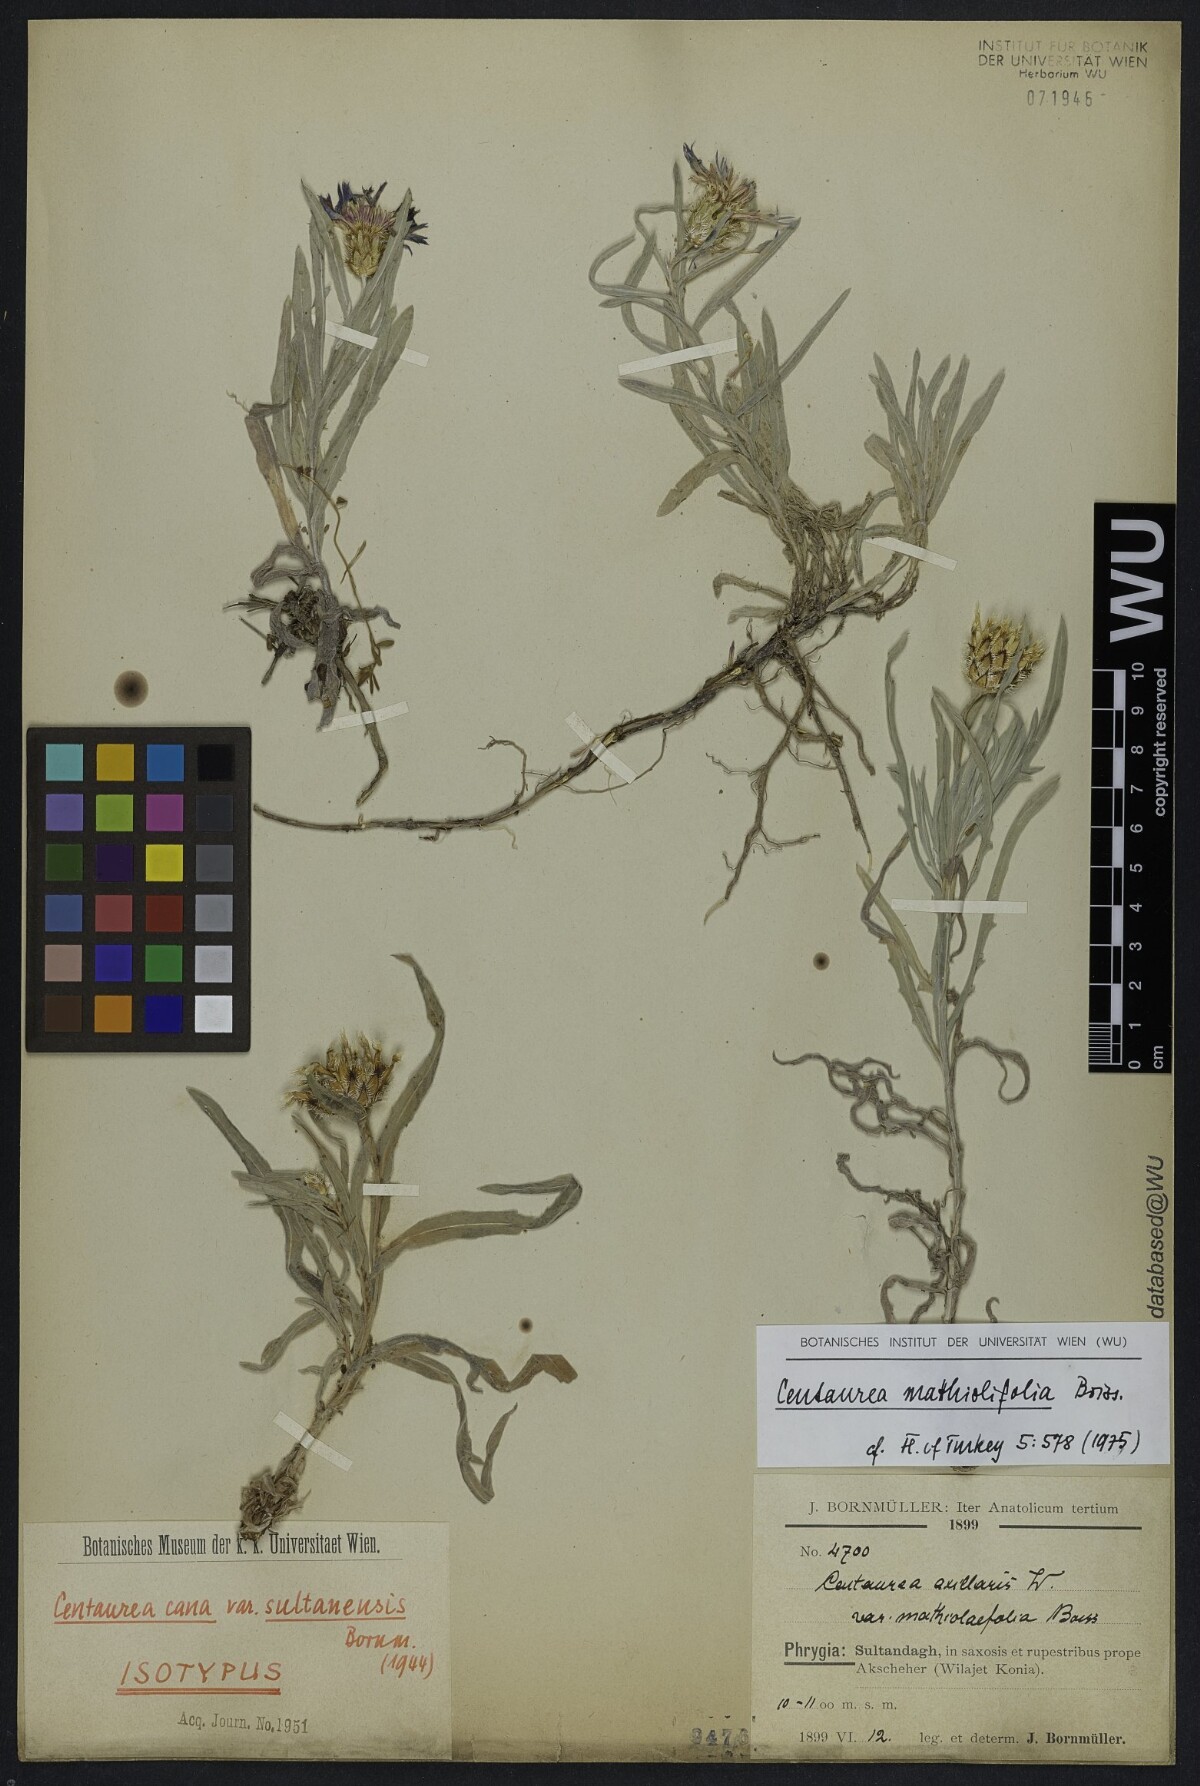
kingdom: Plantae
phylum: Tracheophyta
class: Magnoliopsida
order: Asterales
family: Asteraceae
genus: Centaurea
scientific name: Centaurea matthiolifolia
